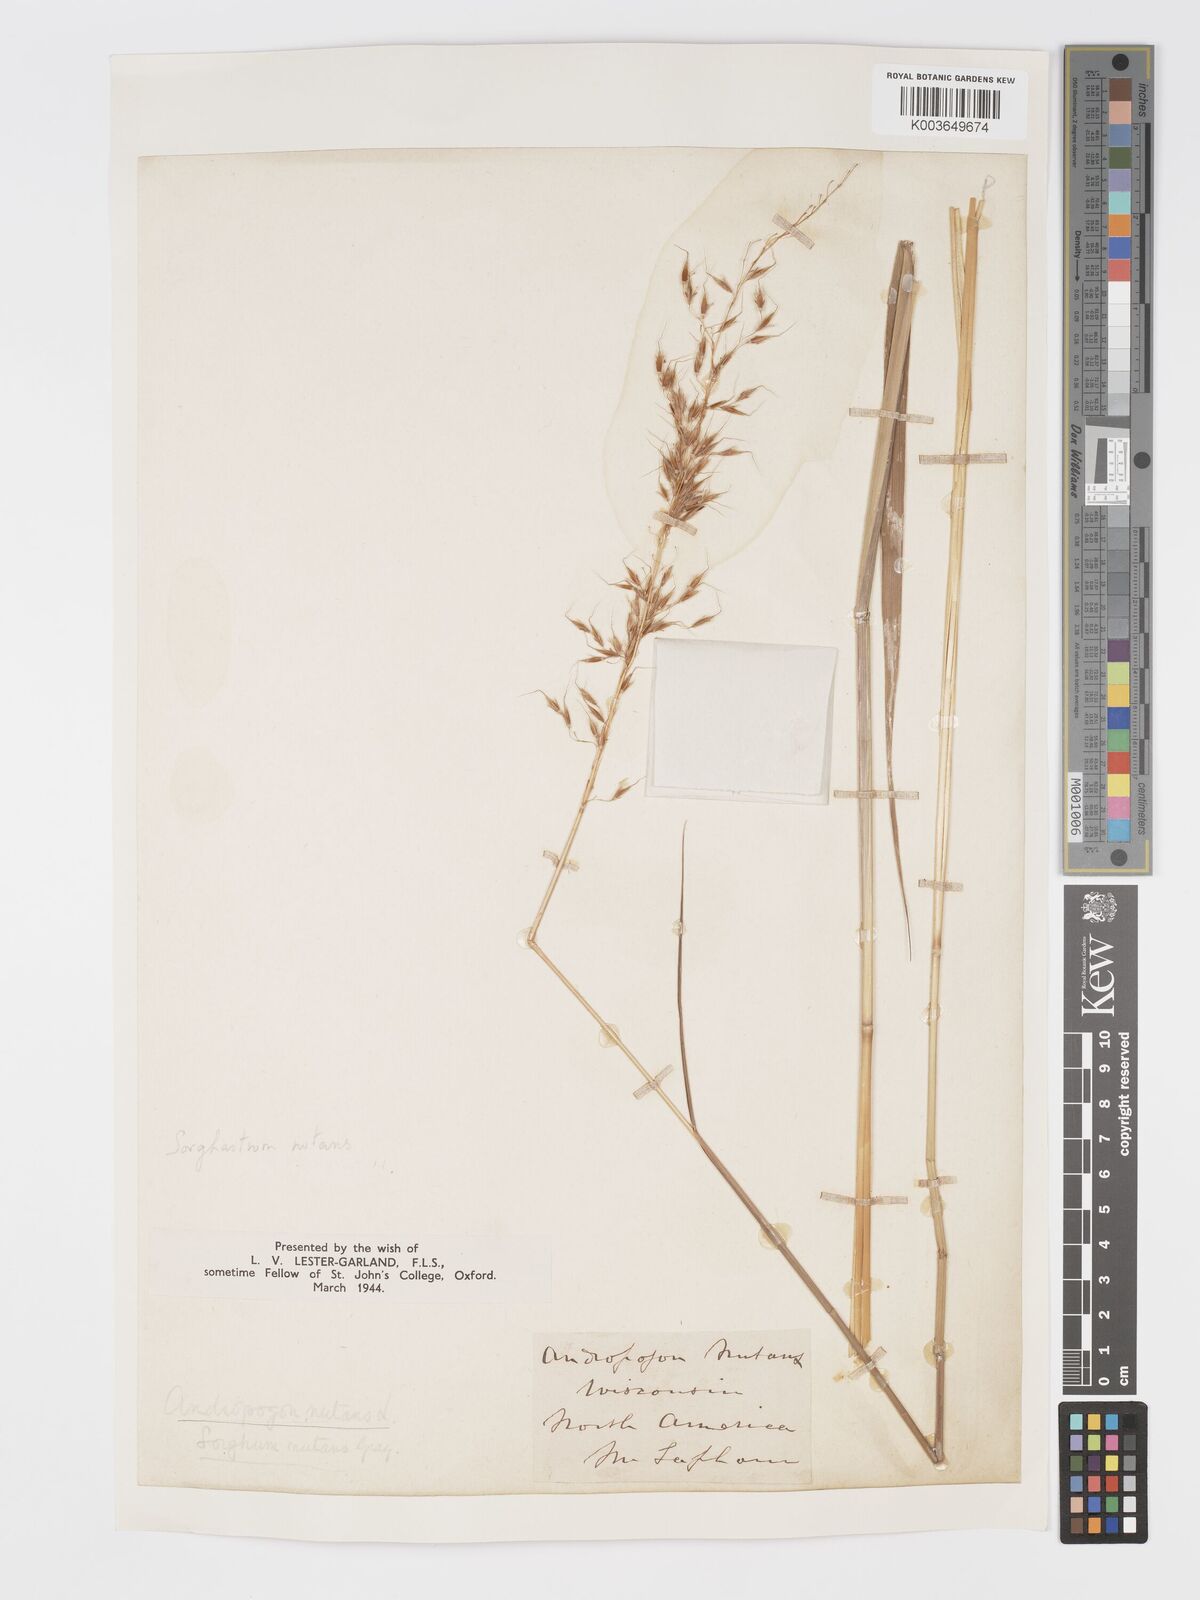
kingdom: Plantae
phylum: Tracheophyta
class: Liliopsida
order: Poales
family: Poaceae
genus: Sorghastrum
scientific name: Sorghastrum nutans
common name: Indian grass
